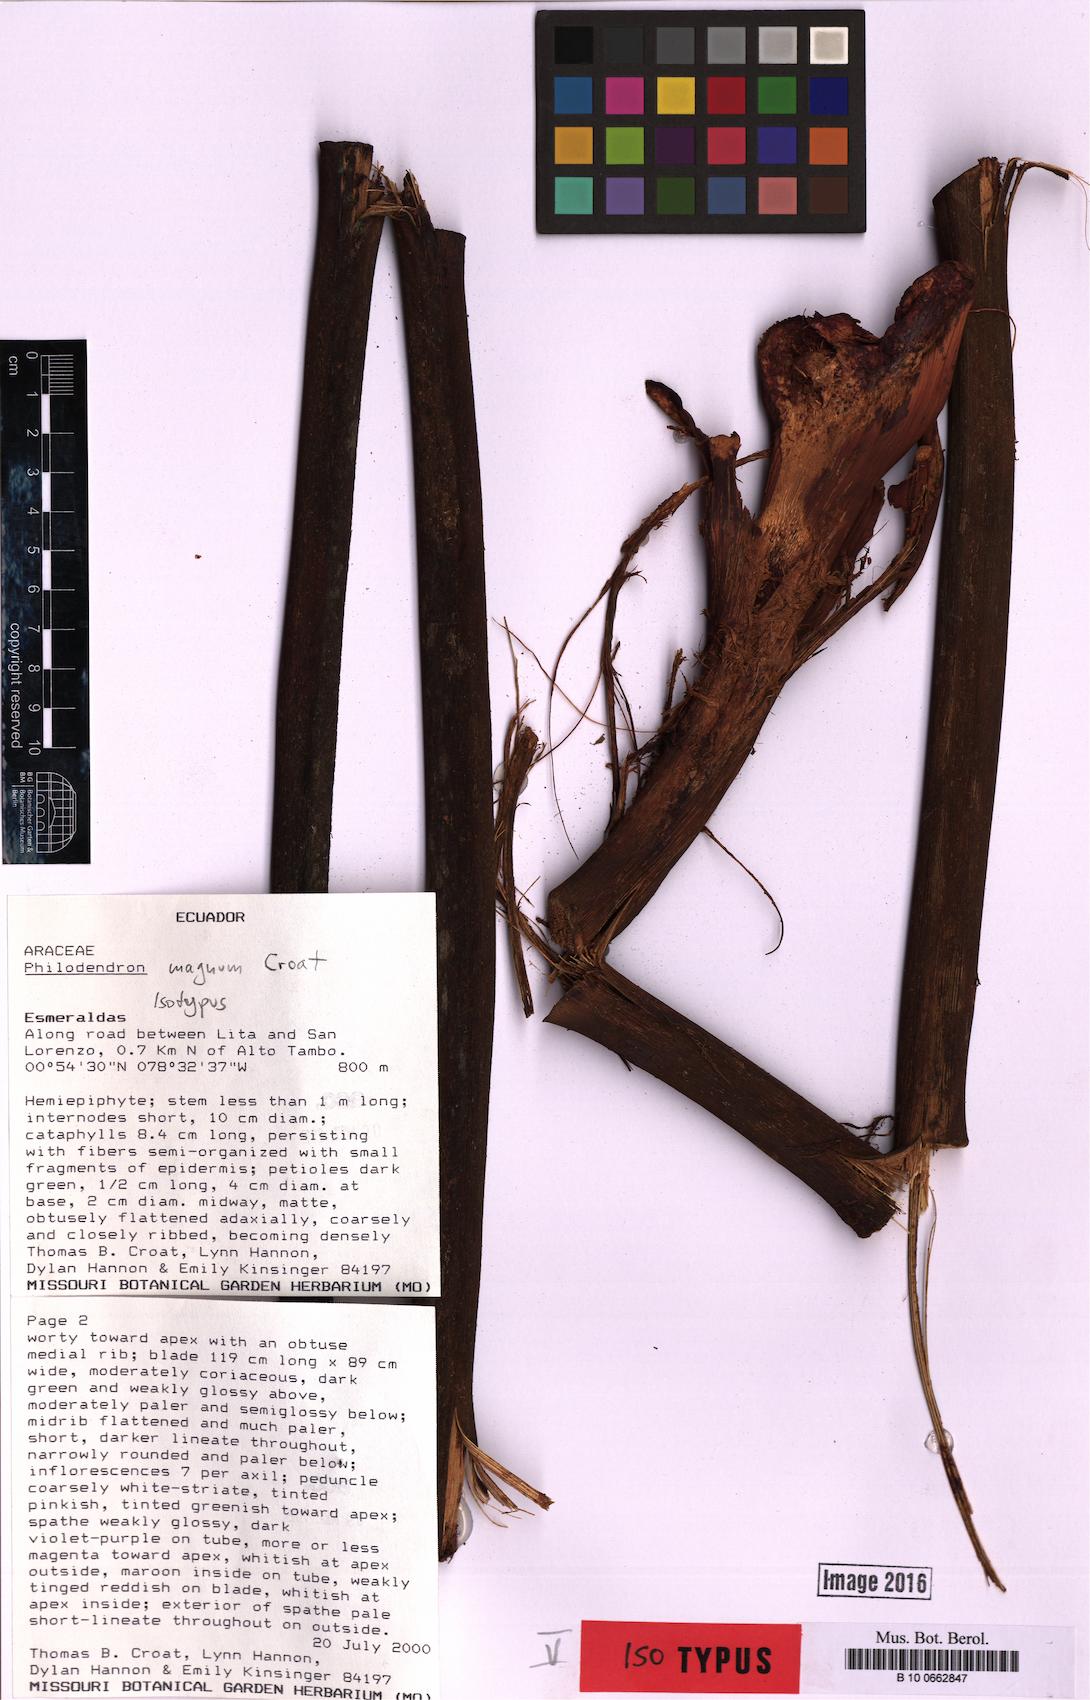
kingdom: Plantae
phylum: Tracheophyta
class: Liliopsida
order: Alismatales
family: Araceae
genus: Philodendron
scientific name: Philodendron magnum
